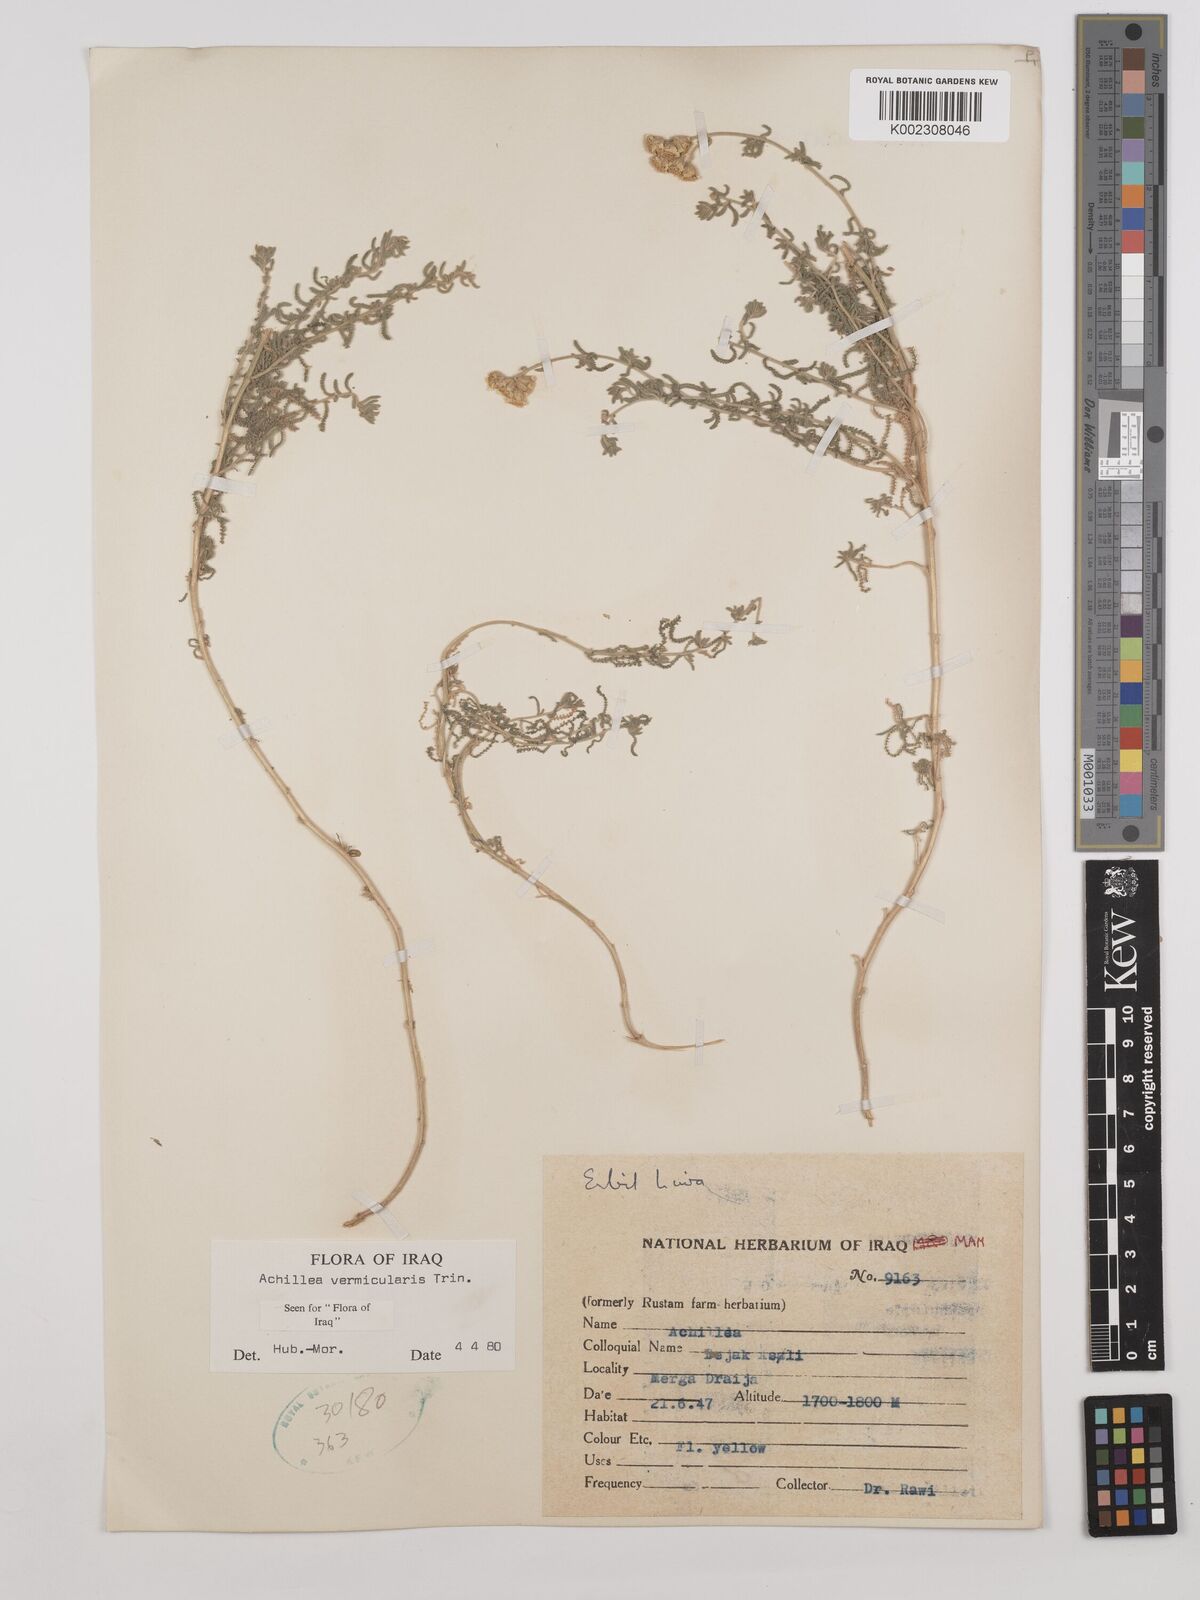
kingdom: Plantae
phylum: Tracheophyta
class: Magnoliopsida
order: Asterales
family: Asteraceae
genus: Achillea
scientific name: Achillea vermicularis
